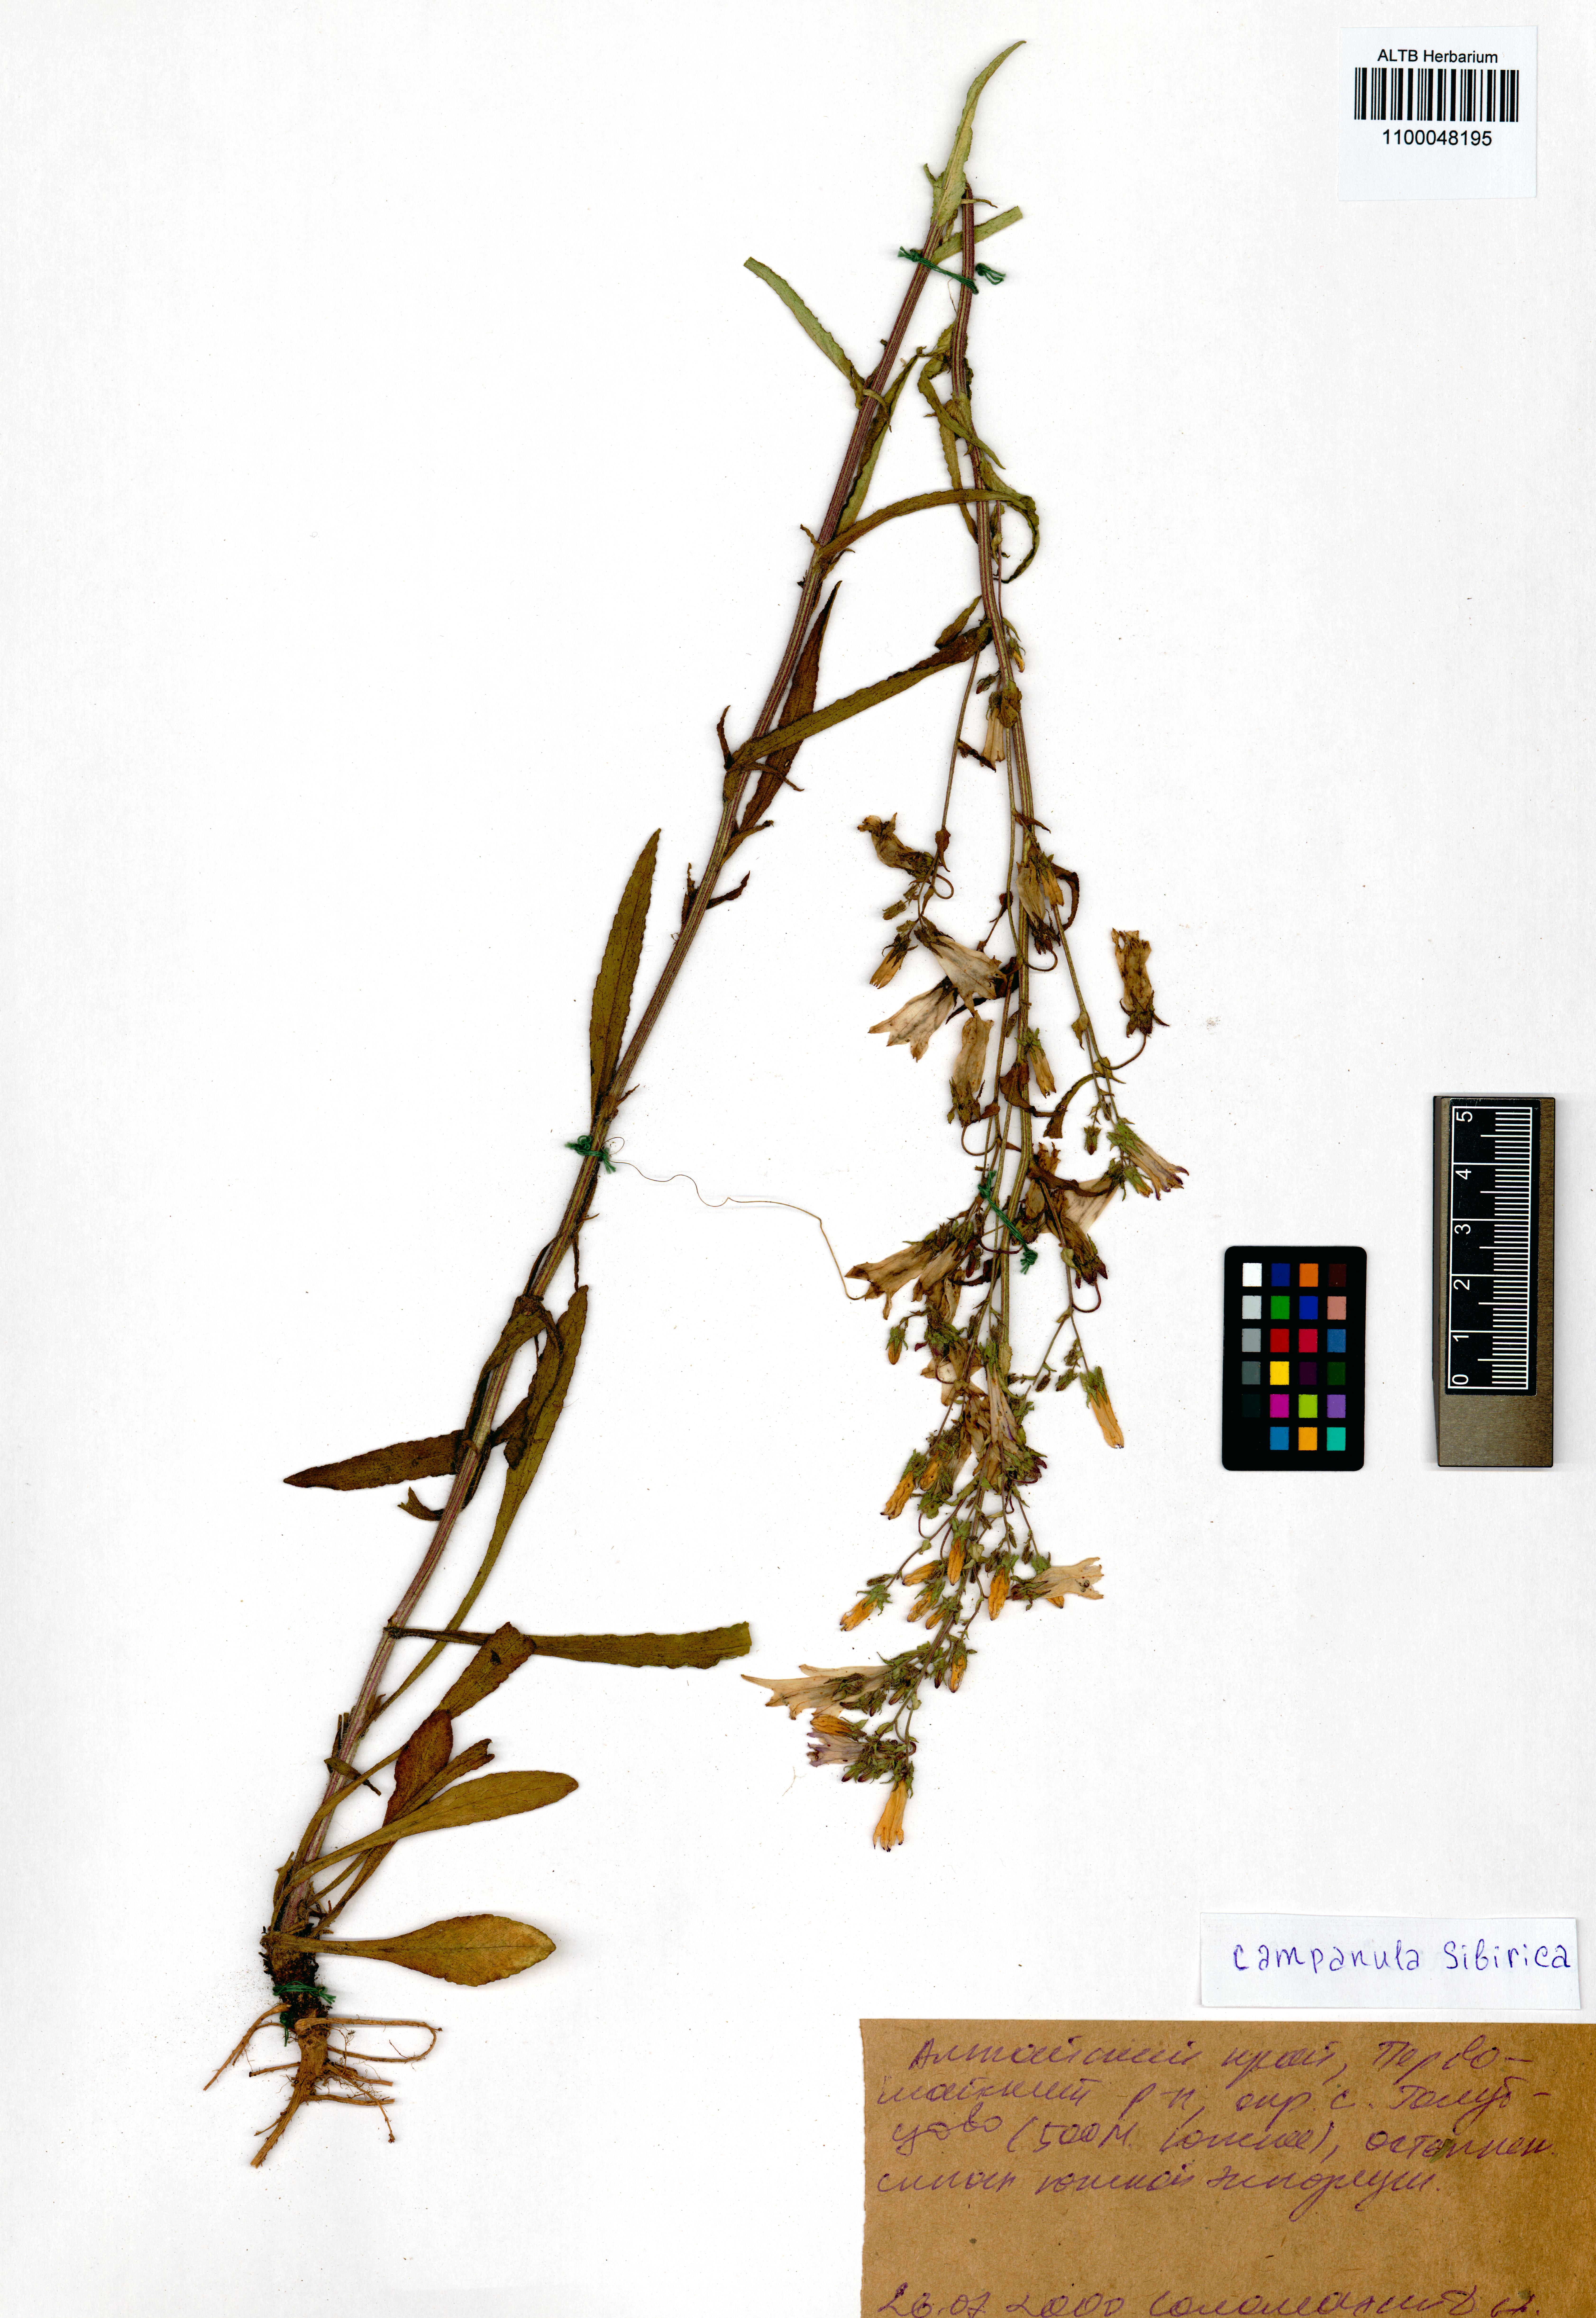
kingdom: Plantae
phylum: Tracheophyta
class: Magnoliopsida
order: Asterales
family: Campanulaceae
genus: Campanula
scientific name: Campanula sibirica
